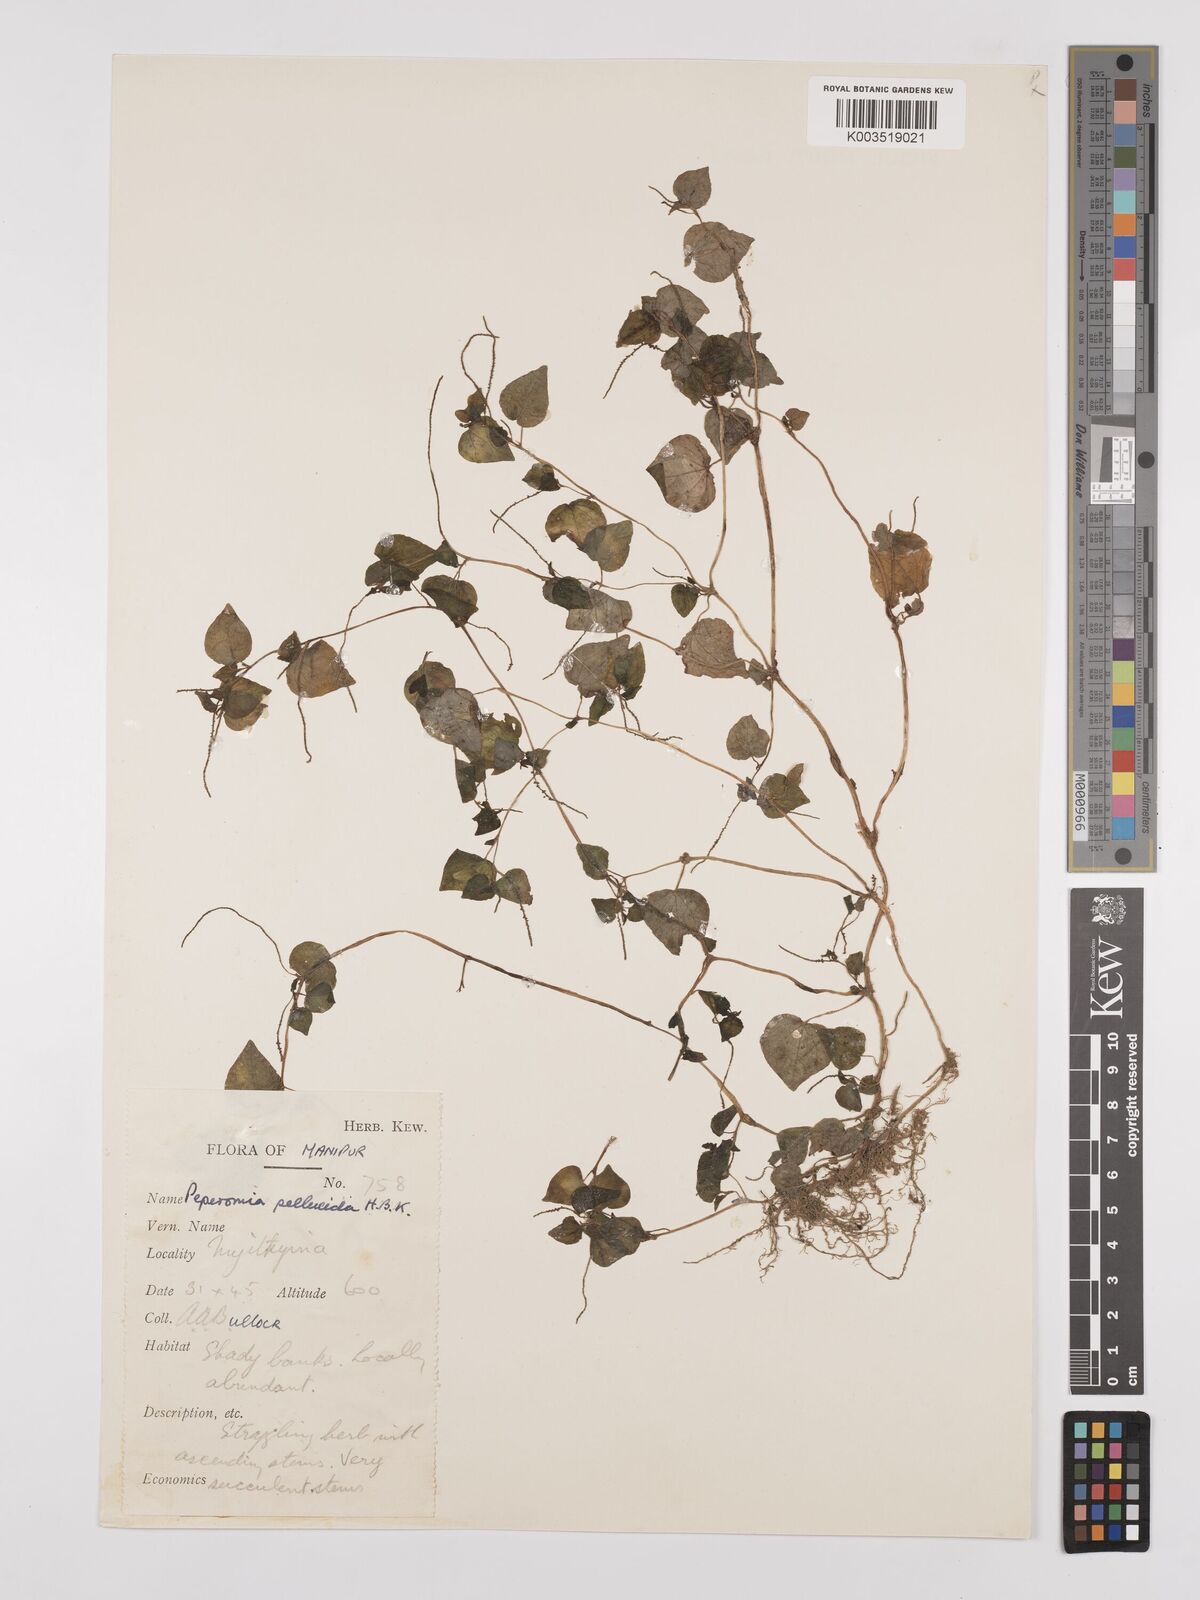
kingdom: Plantae
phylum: Tracheophyta
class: Magnoliopsida
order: Piperales
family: Piperaceae
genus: Peperomia
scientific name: Peperomia pellucida
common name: Man to man
